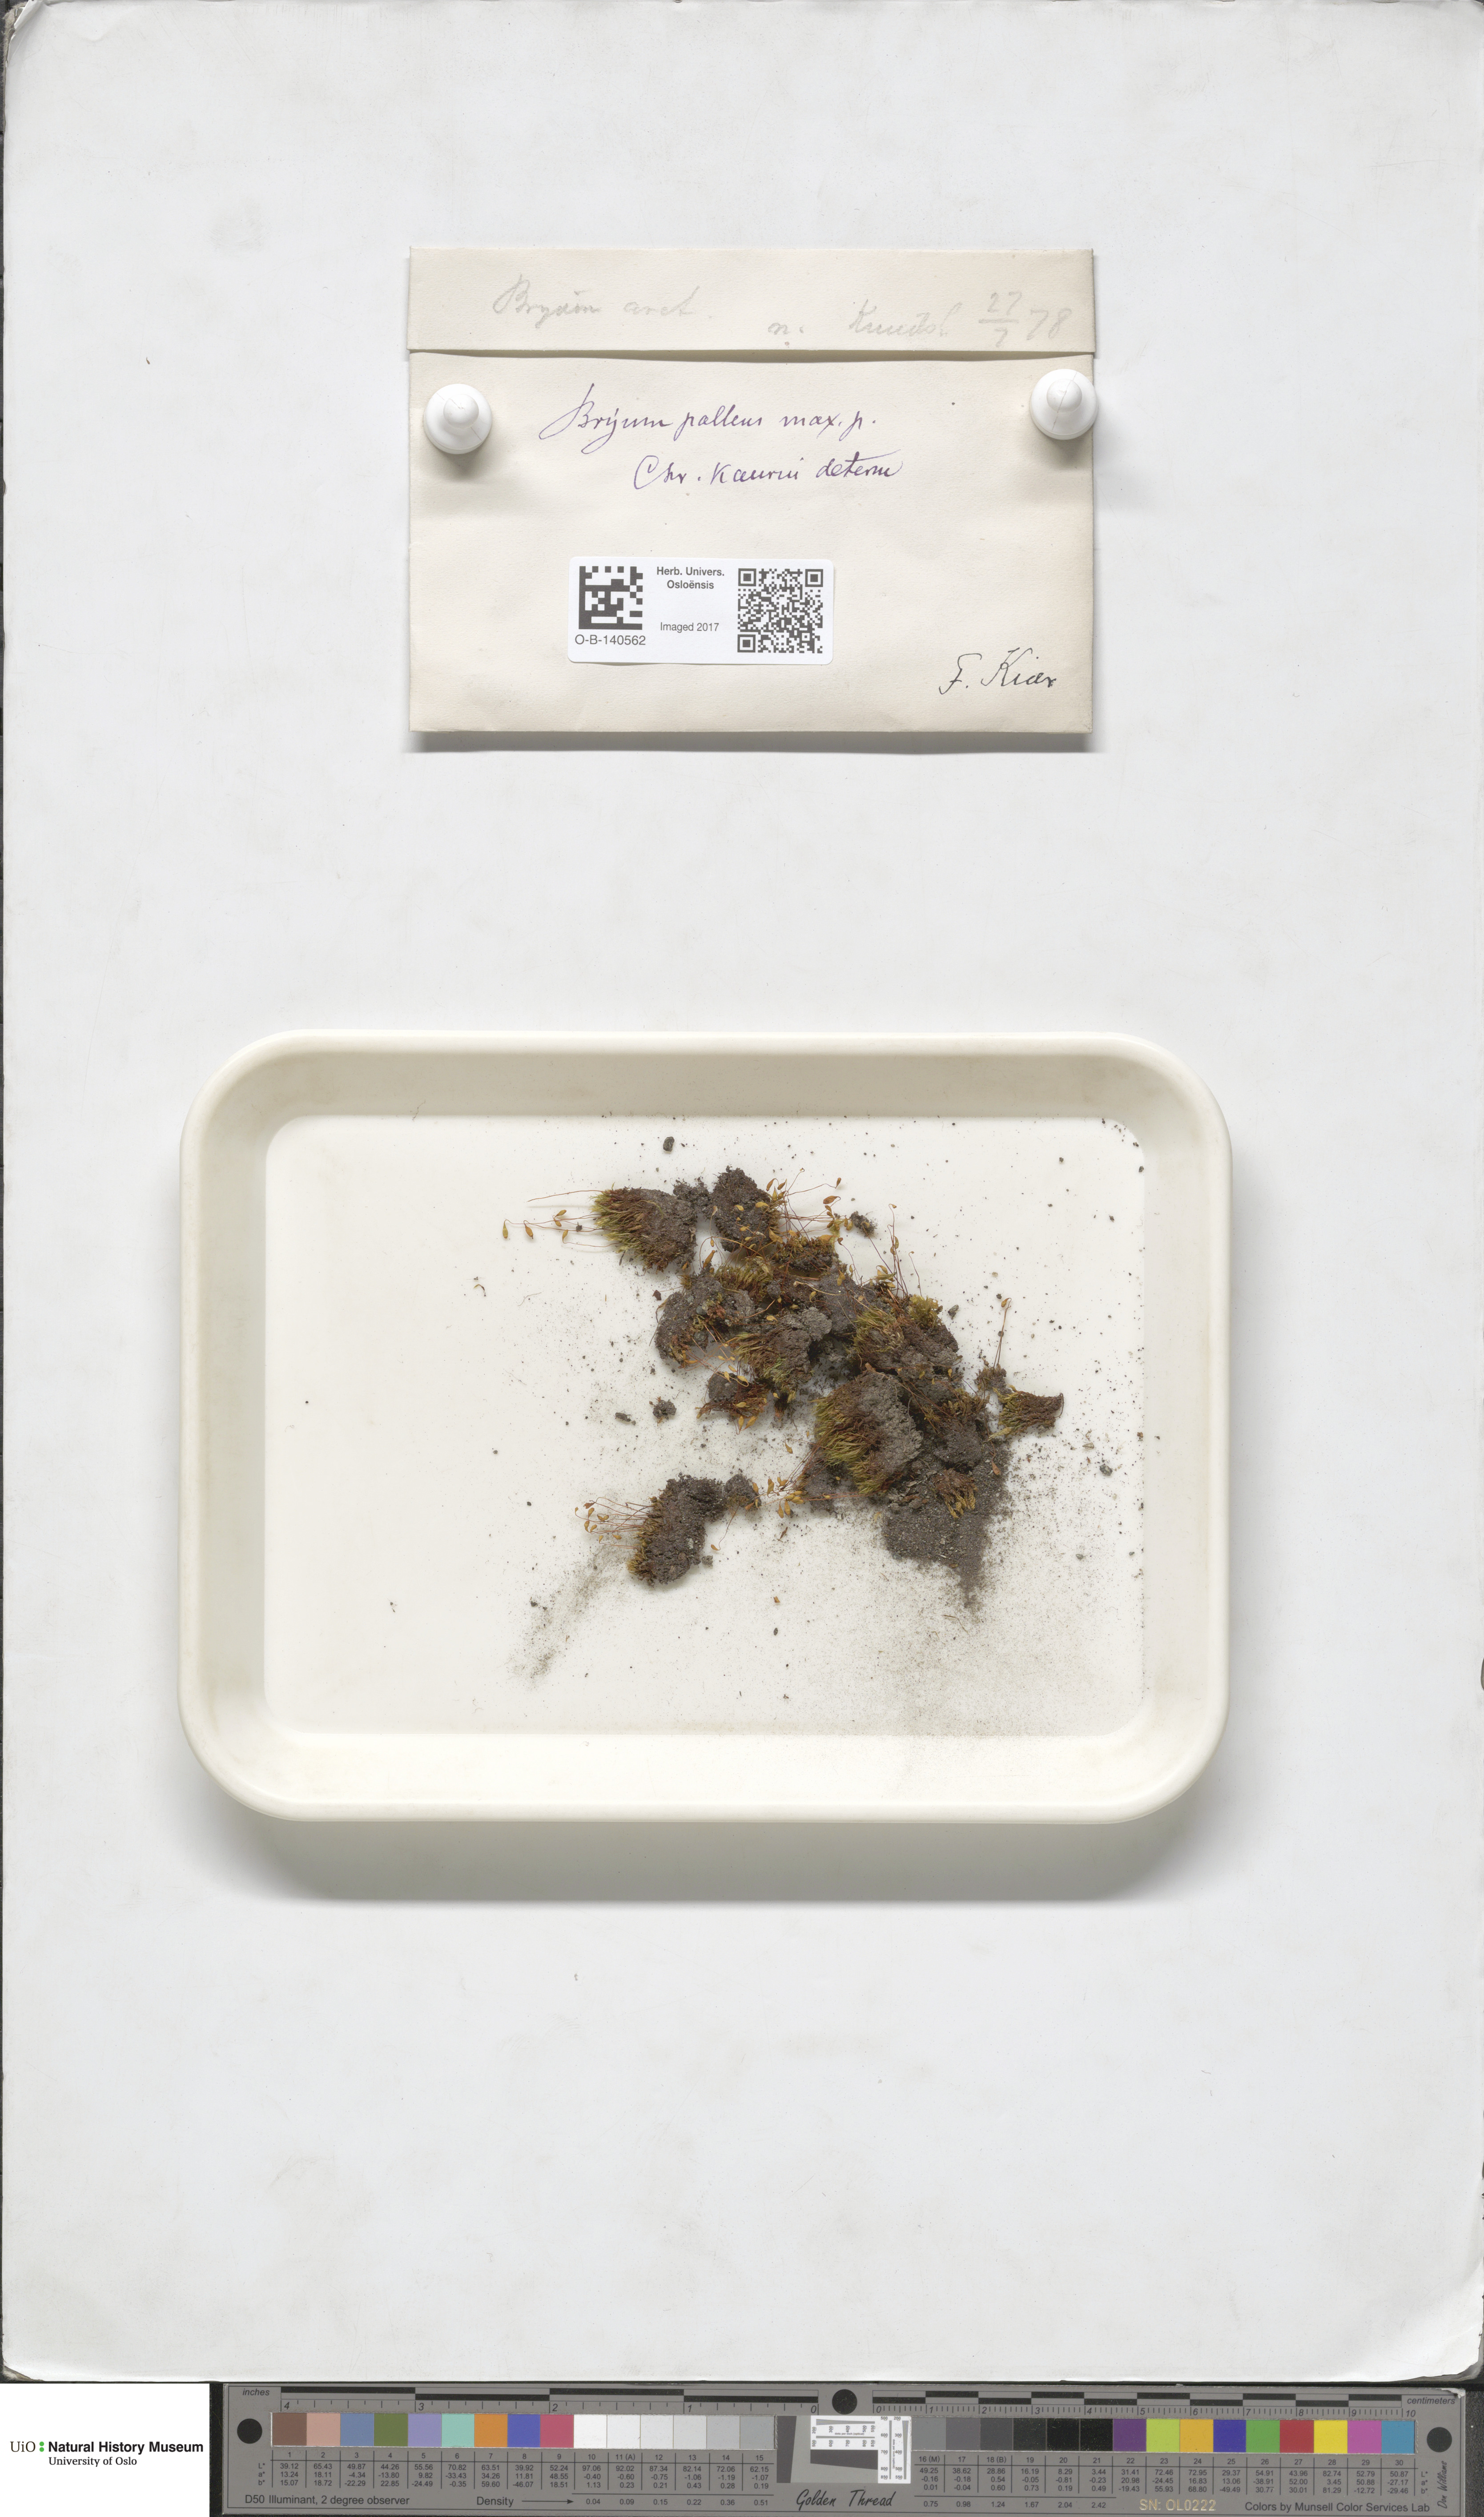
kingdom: Plantae
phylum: Bryophyta
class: Bryopsida
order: Bryales
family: Bryaceae
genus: Ptychostomum
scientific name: Ptychostomum pallens
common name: Pale thread-moss
